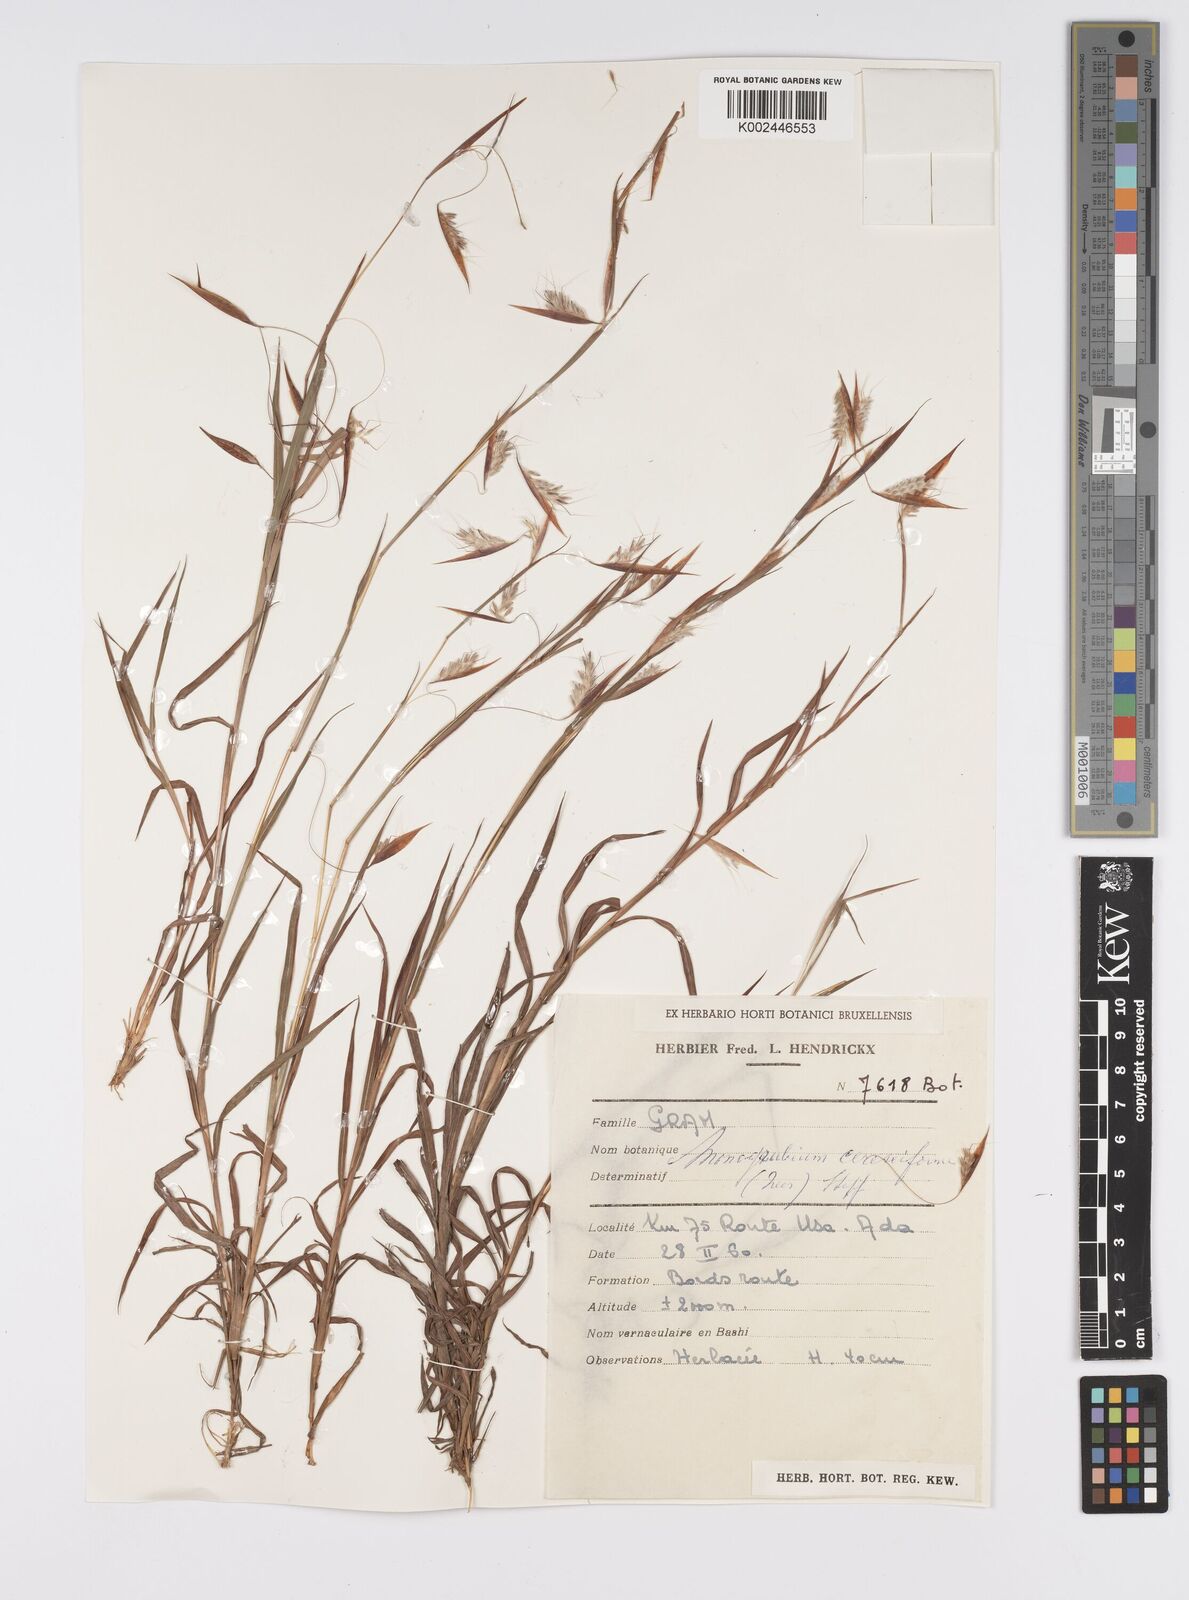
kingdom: Plantae
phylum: Tracheophyta
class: Liliopsida
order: Poales
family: Poaceae
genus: Monocymbium
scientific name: Monocymbium ceresiiforme
